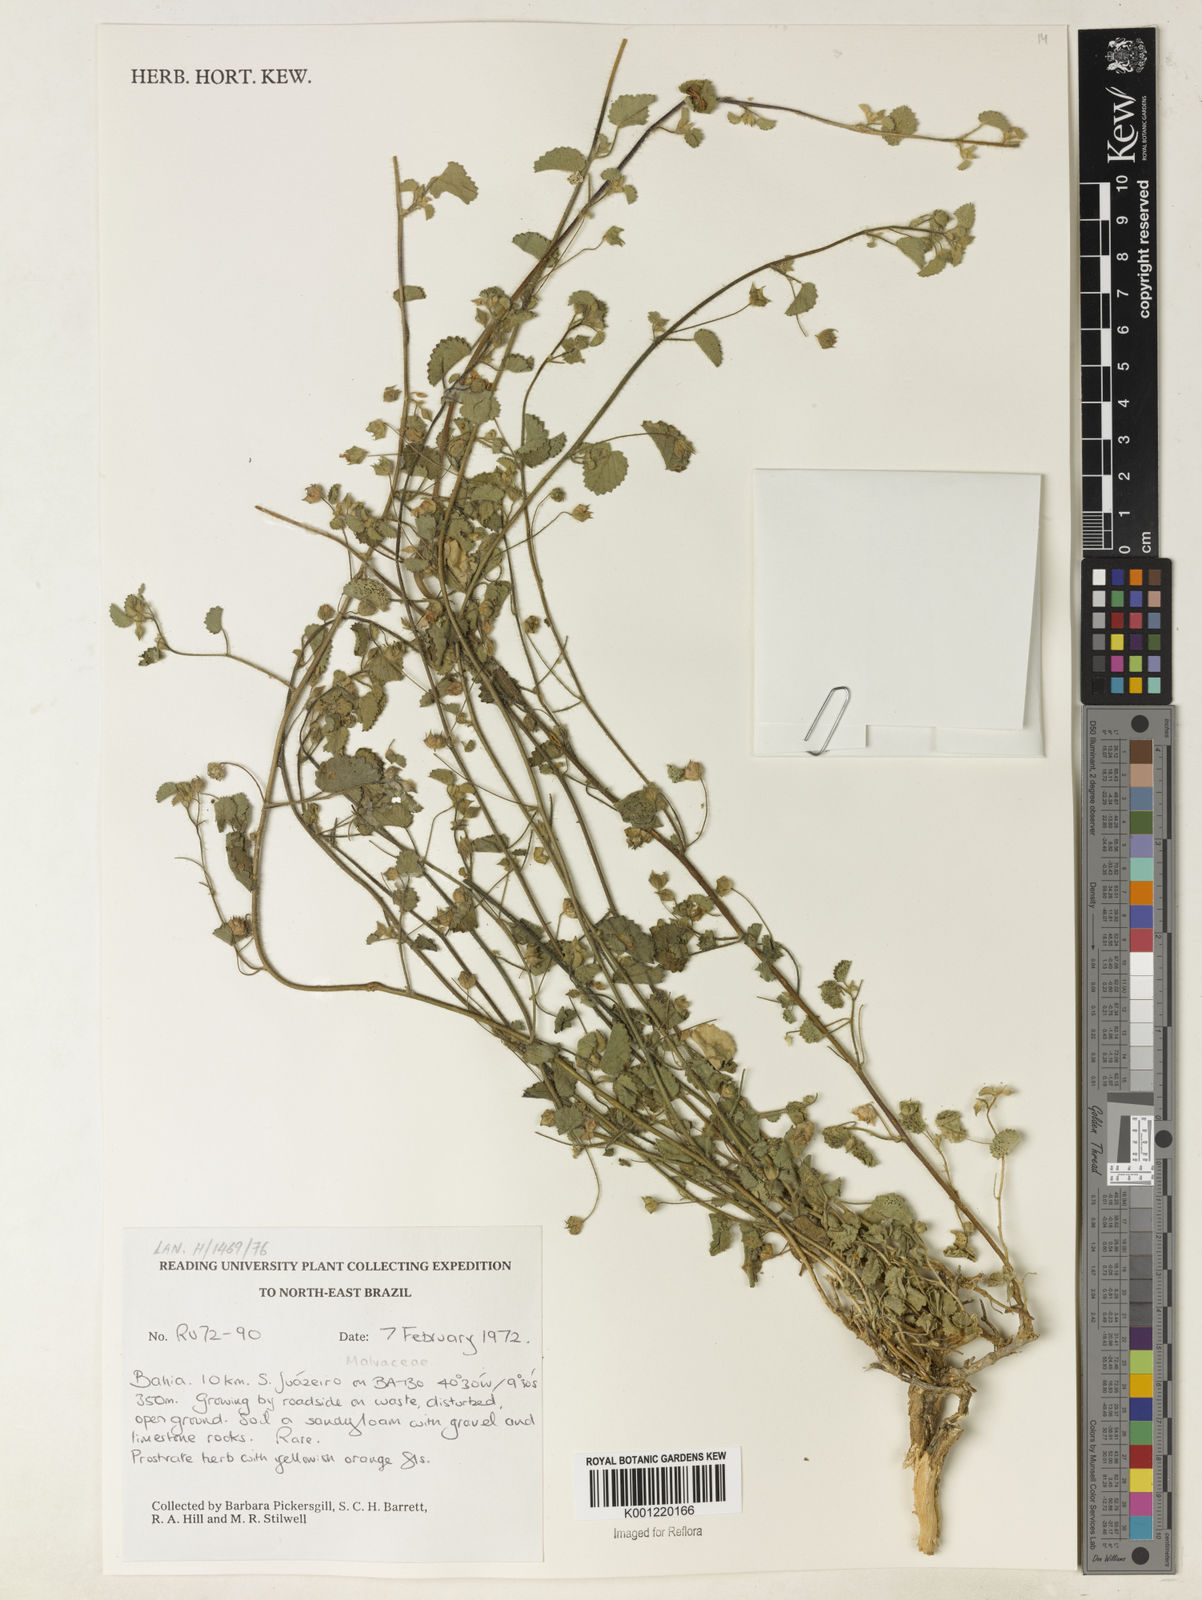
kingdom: Plantae
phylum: Tracheophyta
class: Magnoliopsida
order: Malvales
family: Malvaceae
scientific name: Malvaceae
